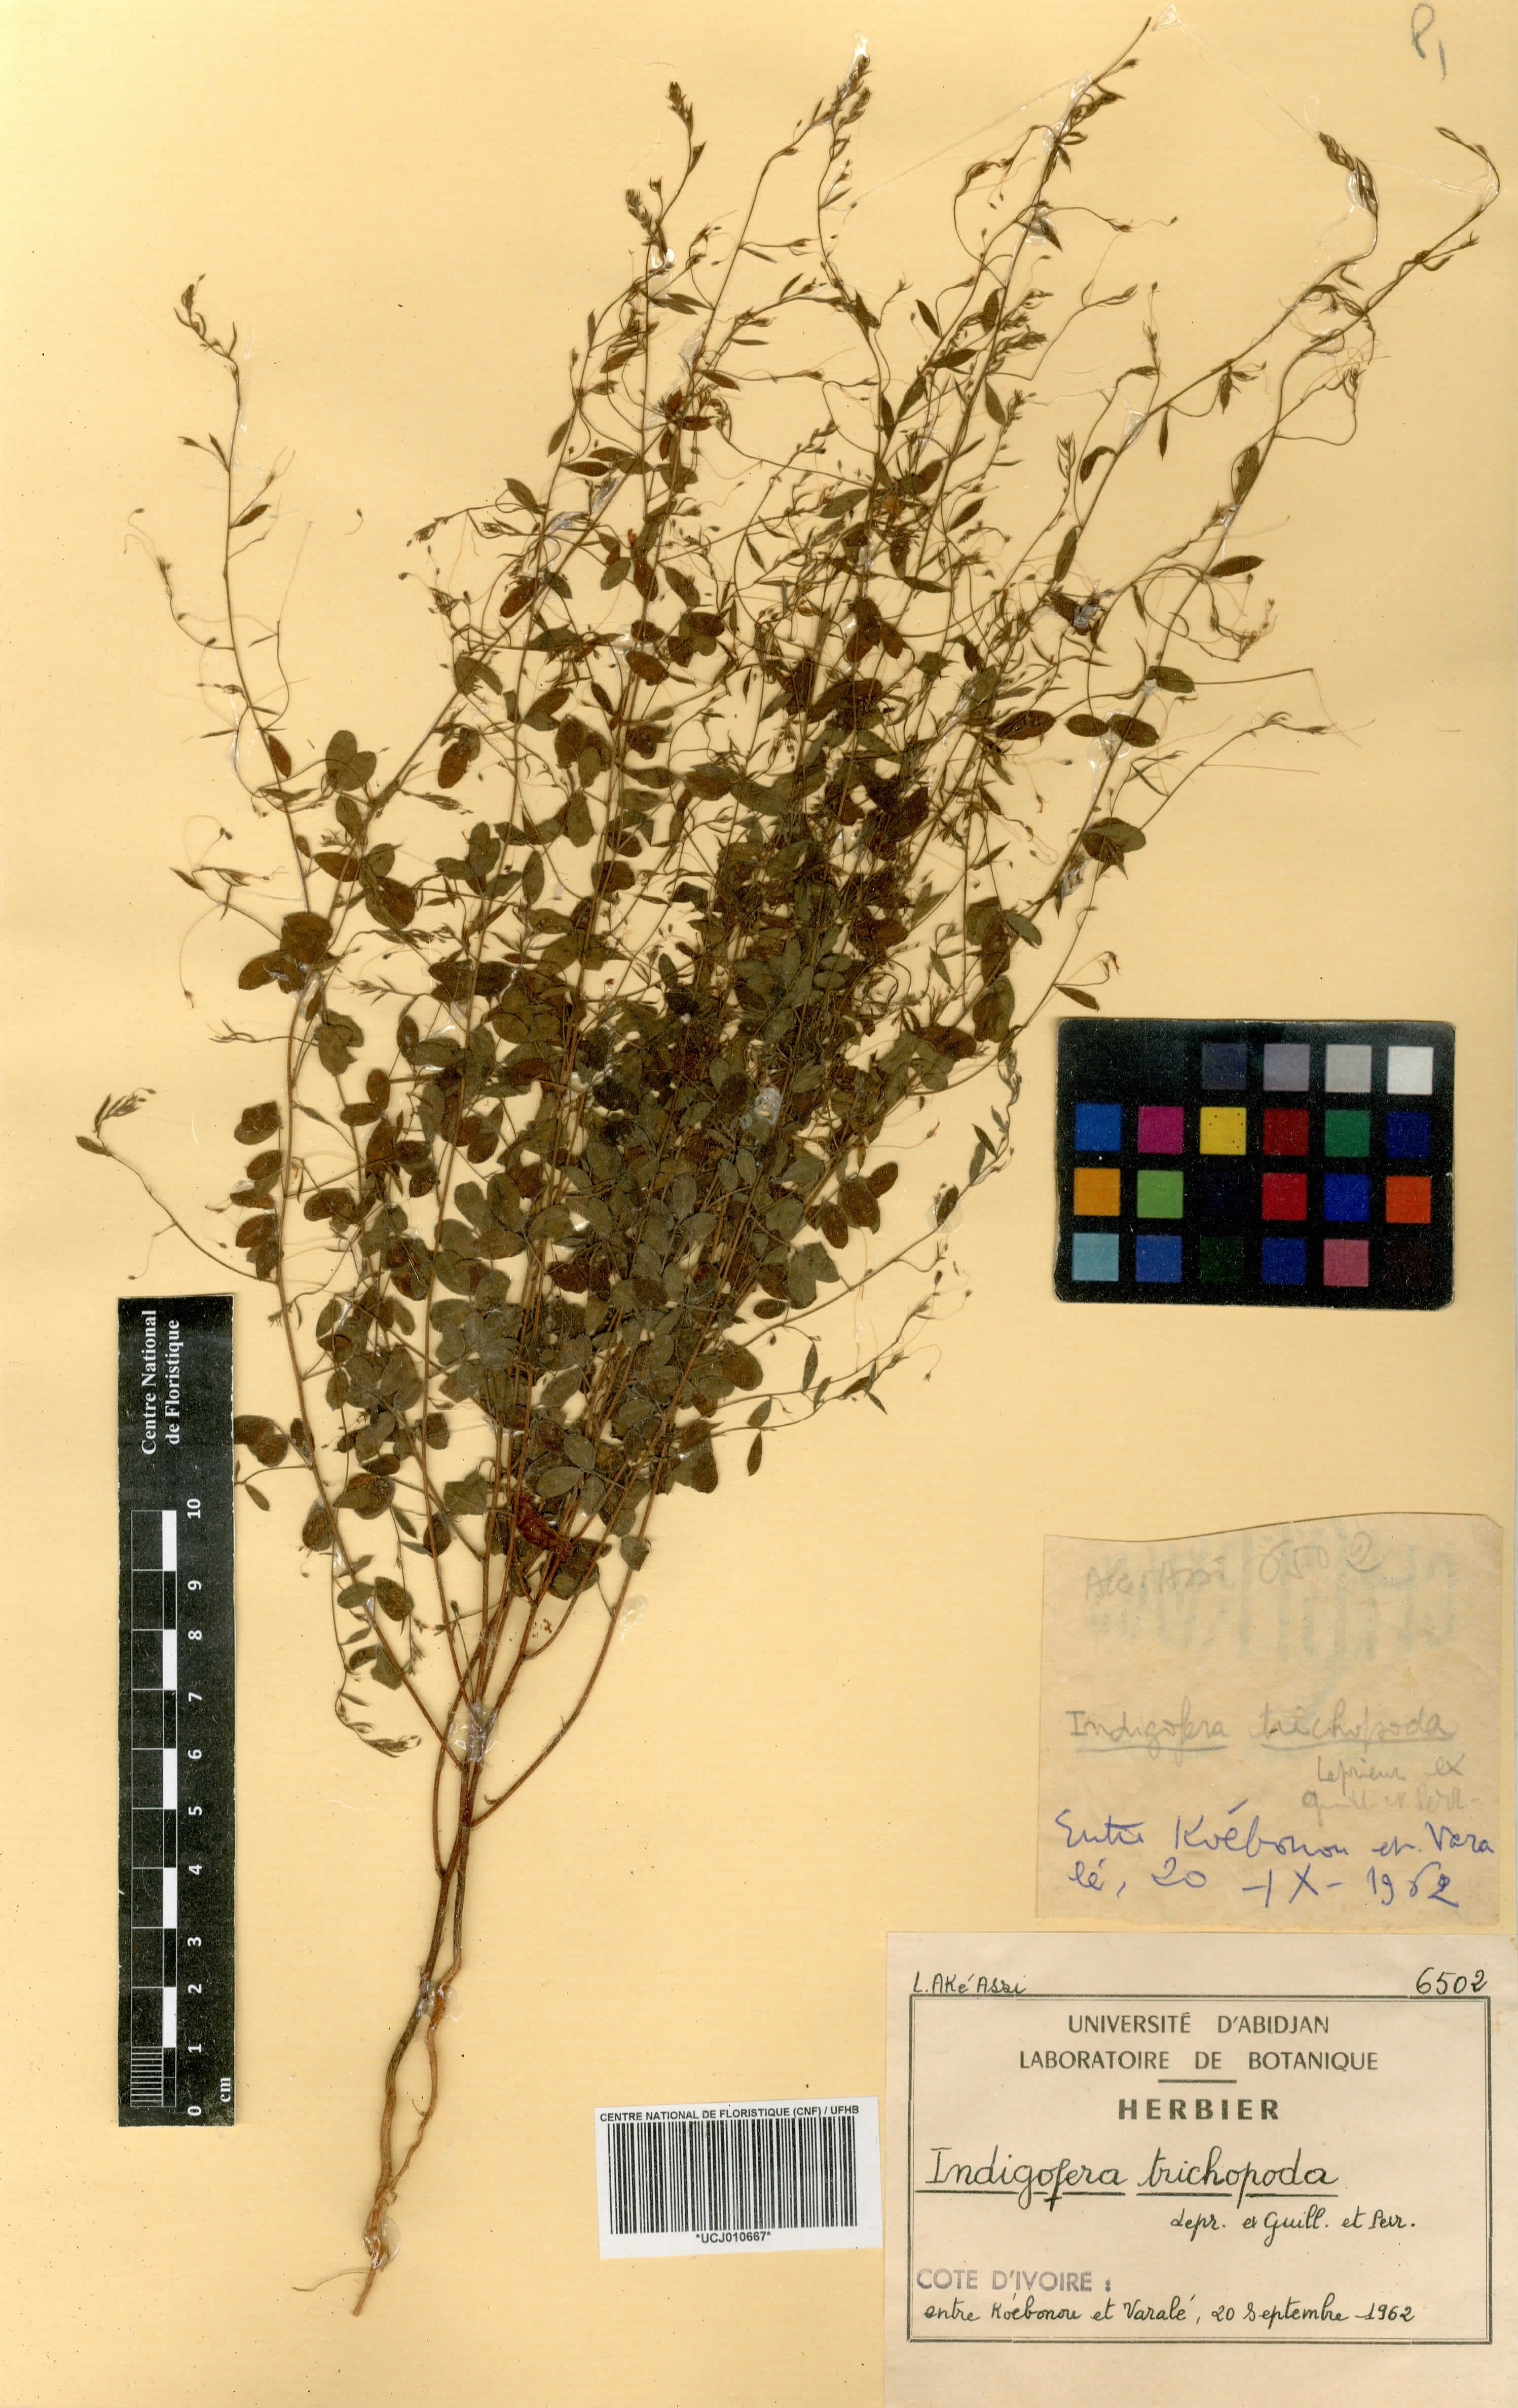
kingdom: Plantae
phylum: Tracheophyta
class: Magnoliopsida
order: Fabales
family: Fabaceae
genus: Indigofera
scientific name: Indigofera trichopoda
